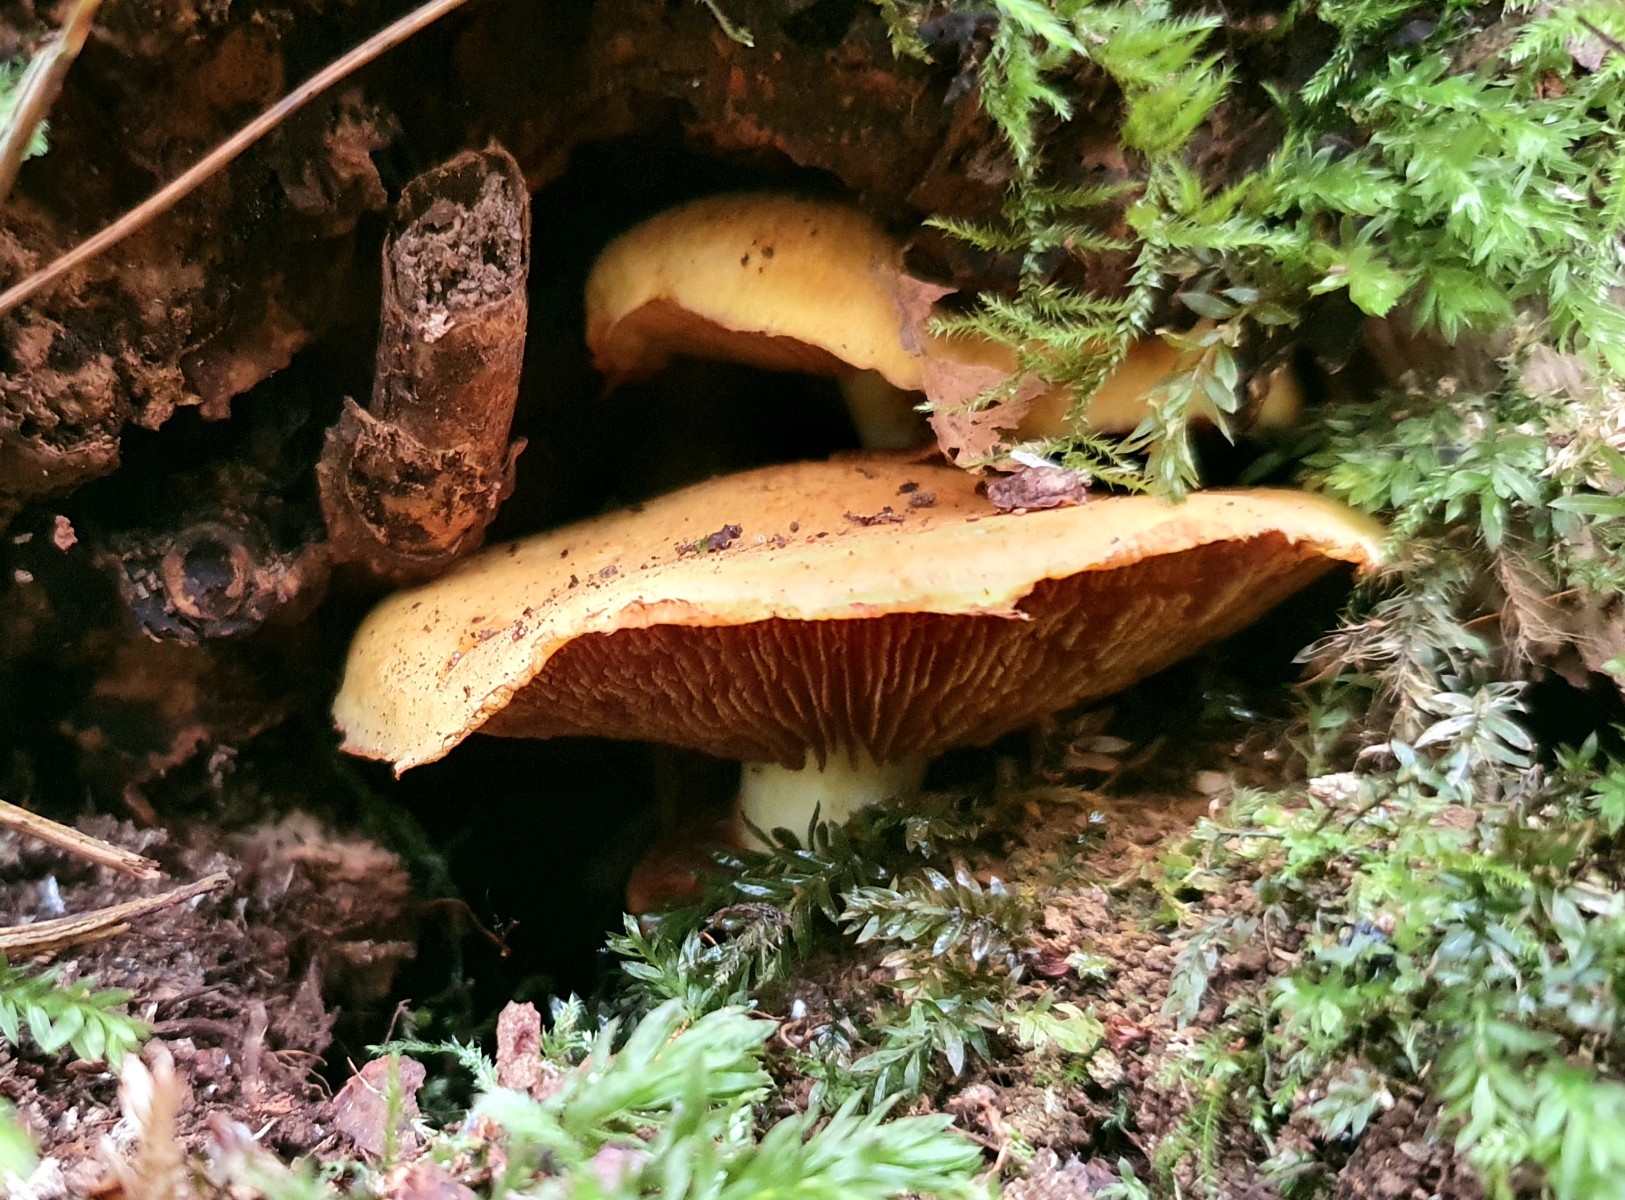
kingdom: Fungi
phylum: Basidiomycota
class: Agaricomycetes
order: Agaricales
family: Hymenogastraceae
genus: Gymnopilus
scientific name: Gymnopilus spectabilis
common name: fibret flammehat
